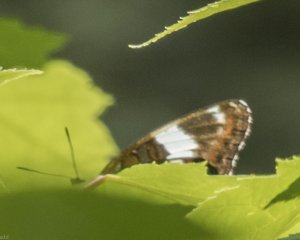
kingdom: Animalia
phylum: Arthropoda
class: Insecta
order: Lepidoptera
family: Nymphalidae
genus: Limenitis
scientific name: Limenitis arthemis
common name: Red-spotted Admiral
